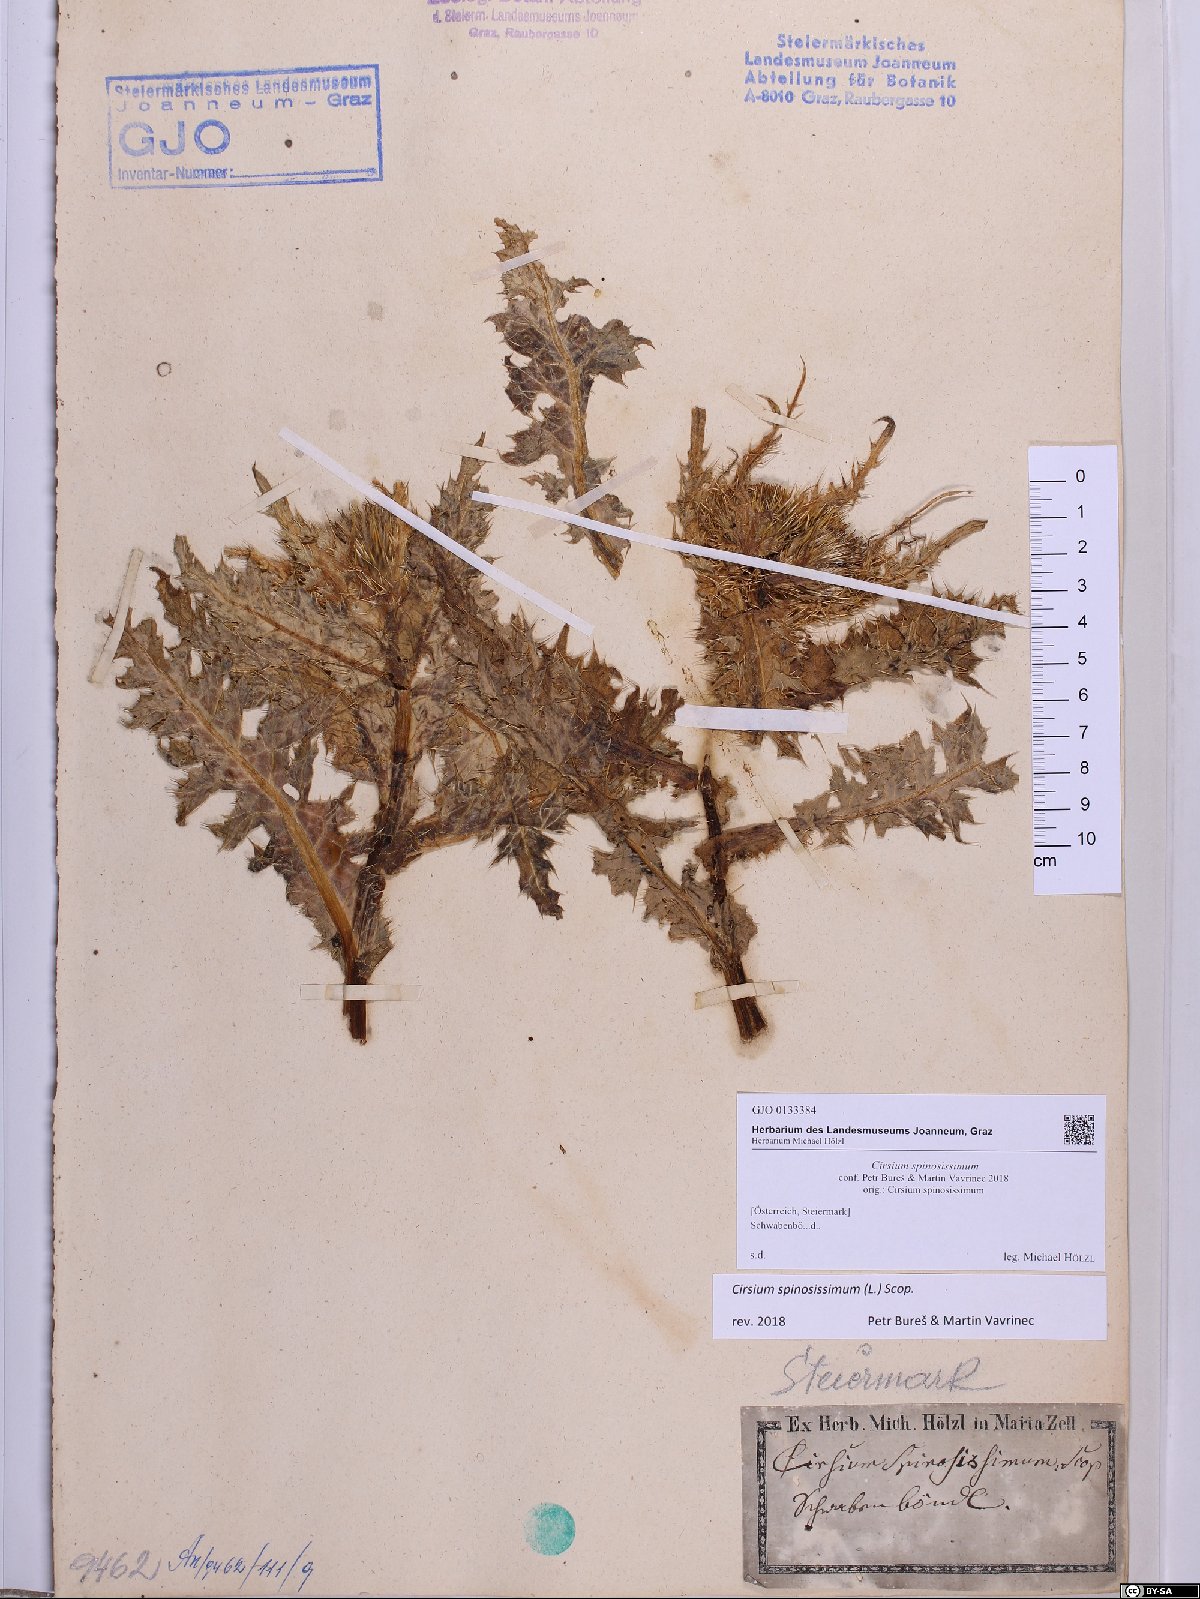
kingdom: Plantae
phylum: Tracheophyta
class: Magnoliopsida
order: Asterales
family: Asteraceae
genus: Cirsium
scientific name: Cirsium spinosissimum
